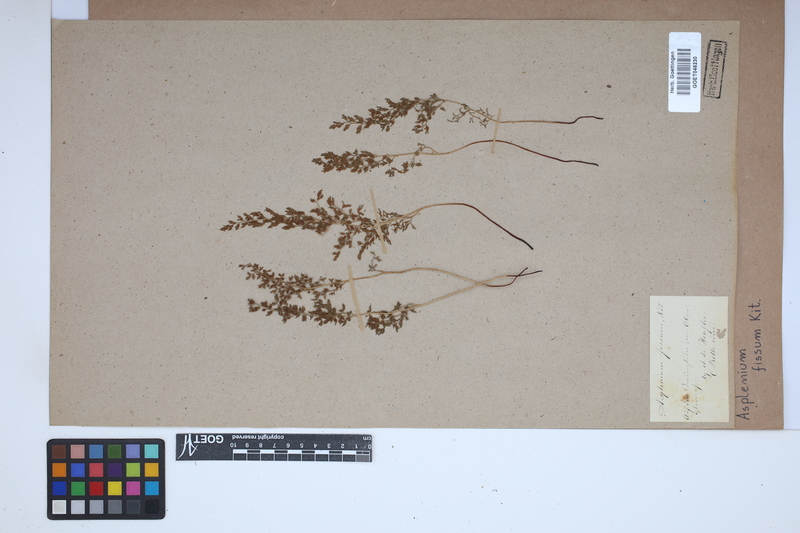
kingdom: Plantae
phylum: Tracheophyta
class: Polypodiopsida
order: Polypodiales
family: Aspleniaceae
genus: Asplenium
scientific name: Asplenium fissum
